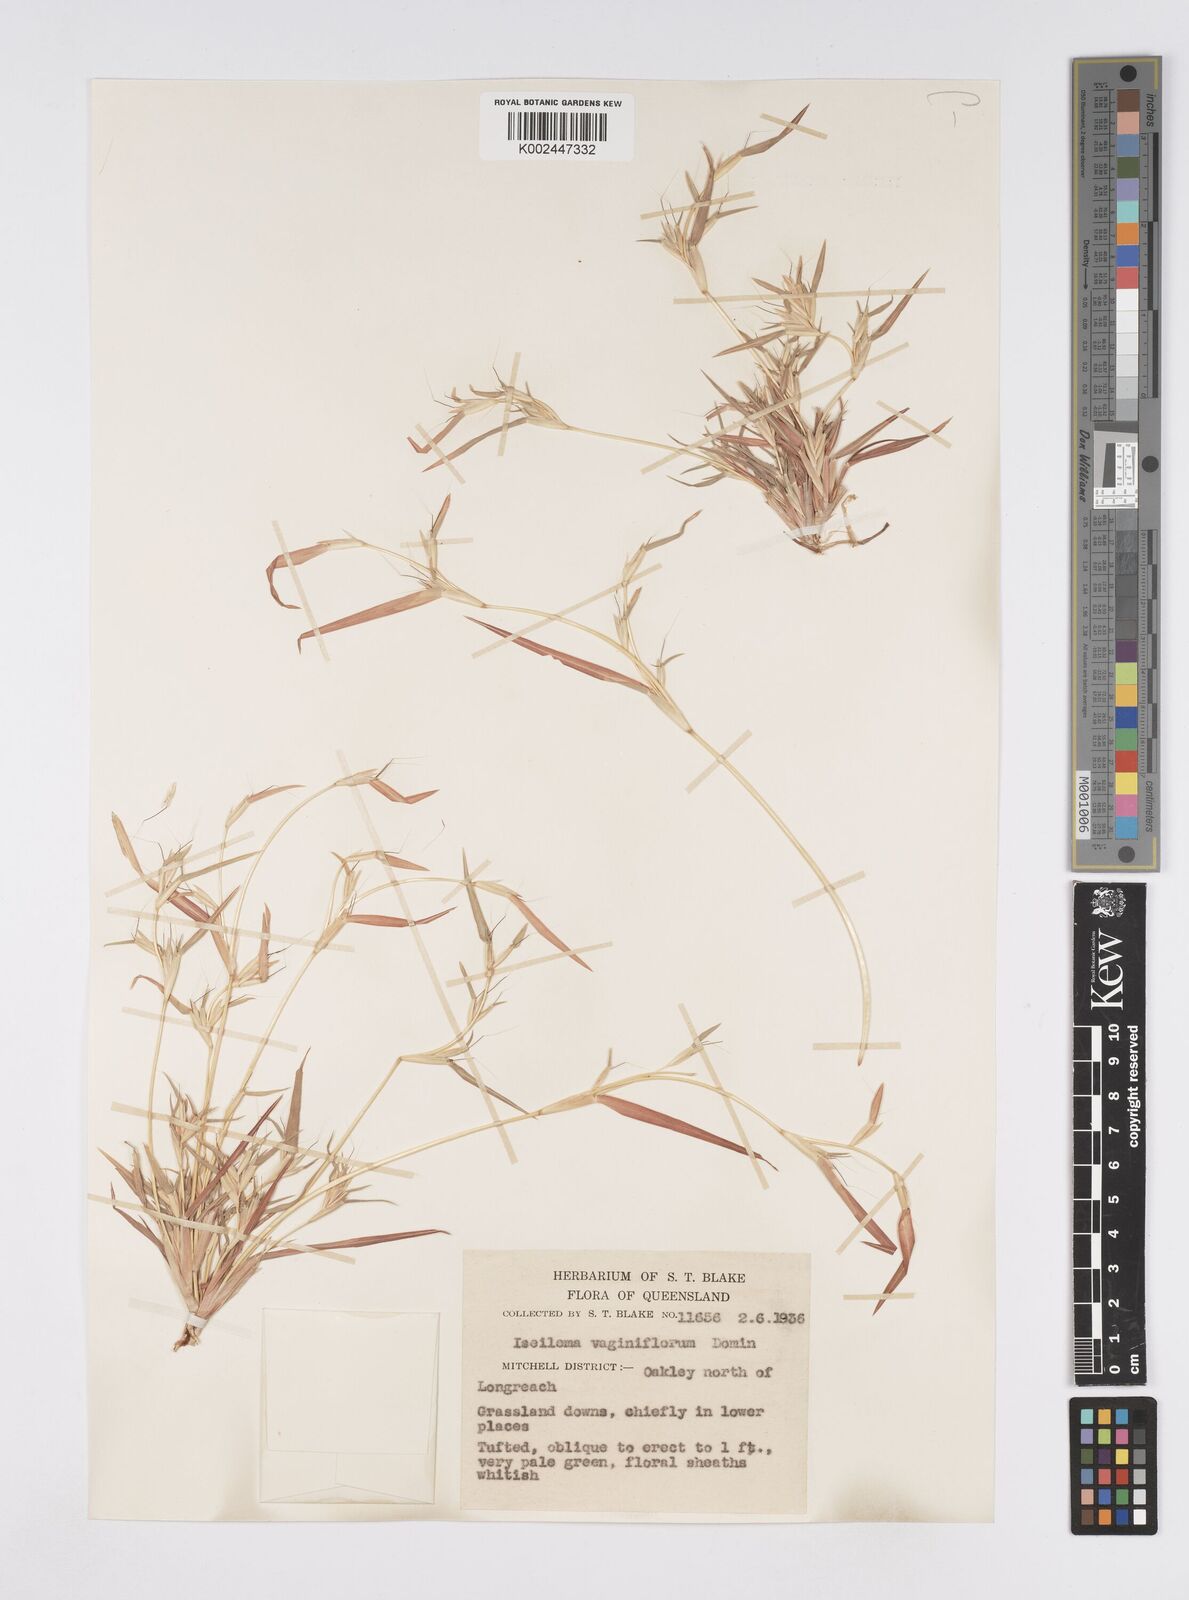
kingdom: Plantae
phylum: Tracheophyta
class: Liliopsida
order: Poales
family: Poaceae
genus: Iseilema
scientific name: Iseilema vaginiflorum
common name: Red flinders grass
